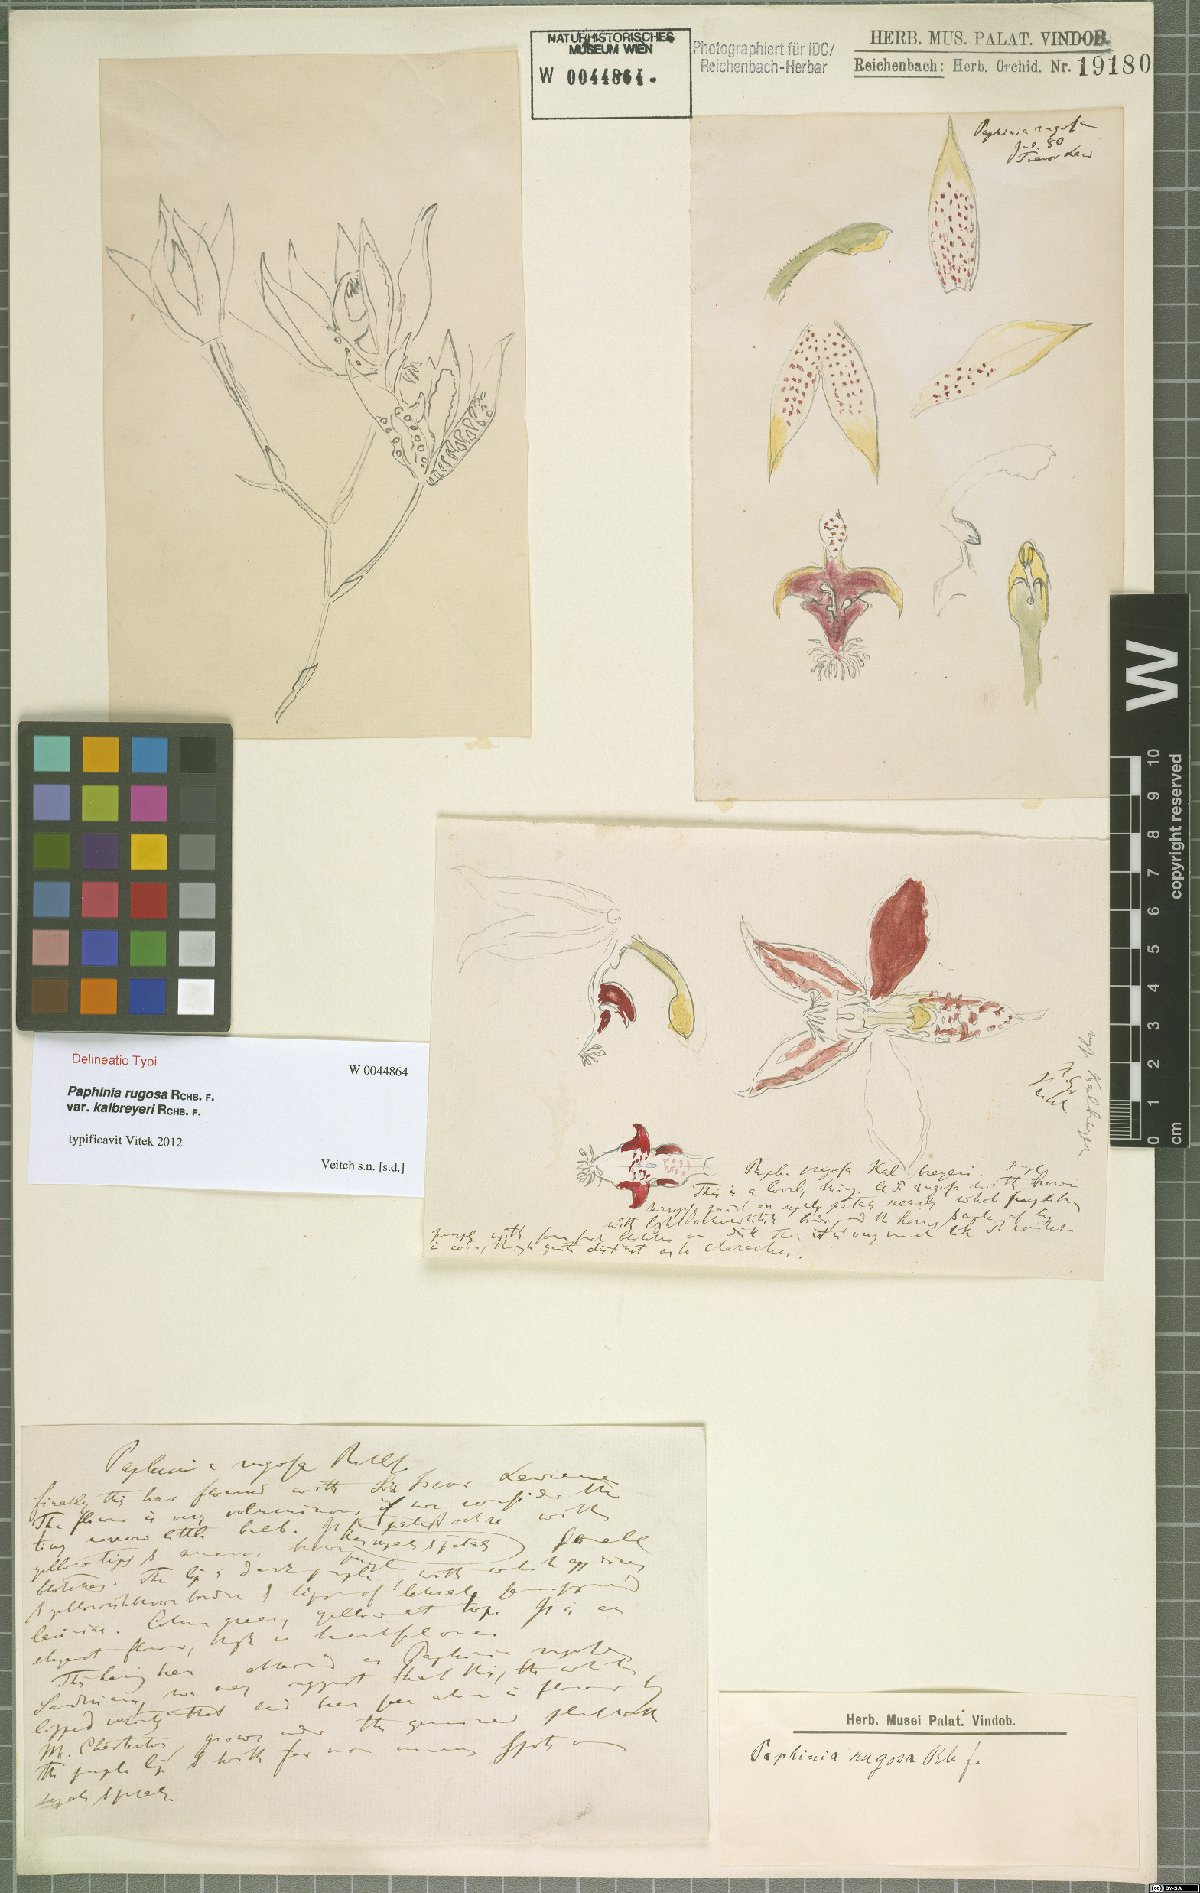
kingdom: Plantae
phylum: Tracheophyta
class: Liliopsida
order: Asparagales
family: Orchidaceae
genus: Paphinia
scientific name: Paphinia rugosa
